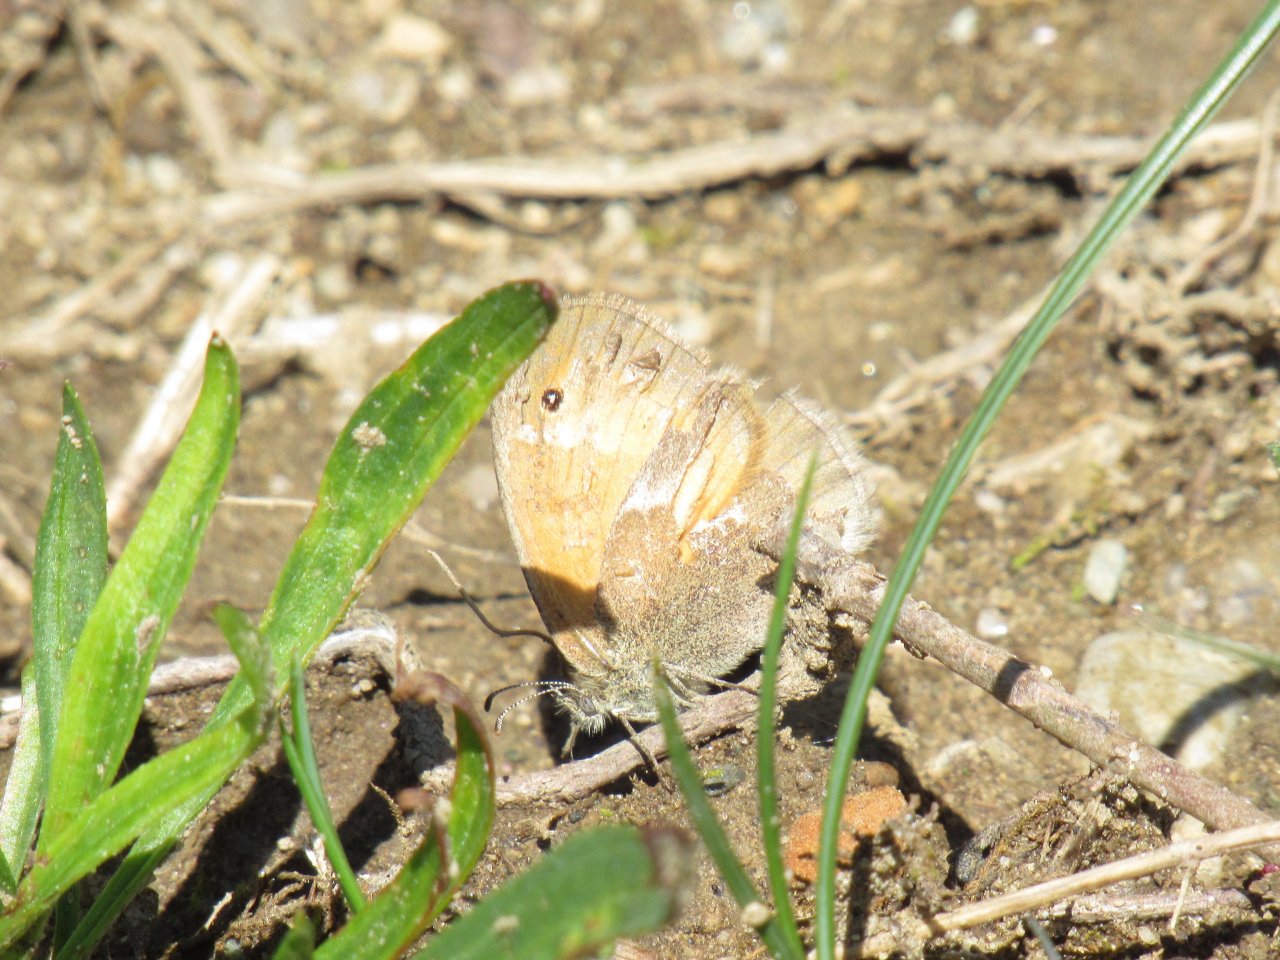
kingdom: Animalia
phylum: Arthropoda
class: Insecta
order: Lepidoptera
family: Nymphalidae
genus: Coenonympha
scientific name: Coenonympha tullia
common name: Large Heath
